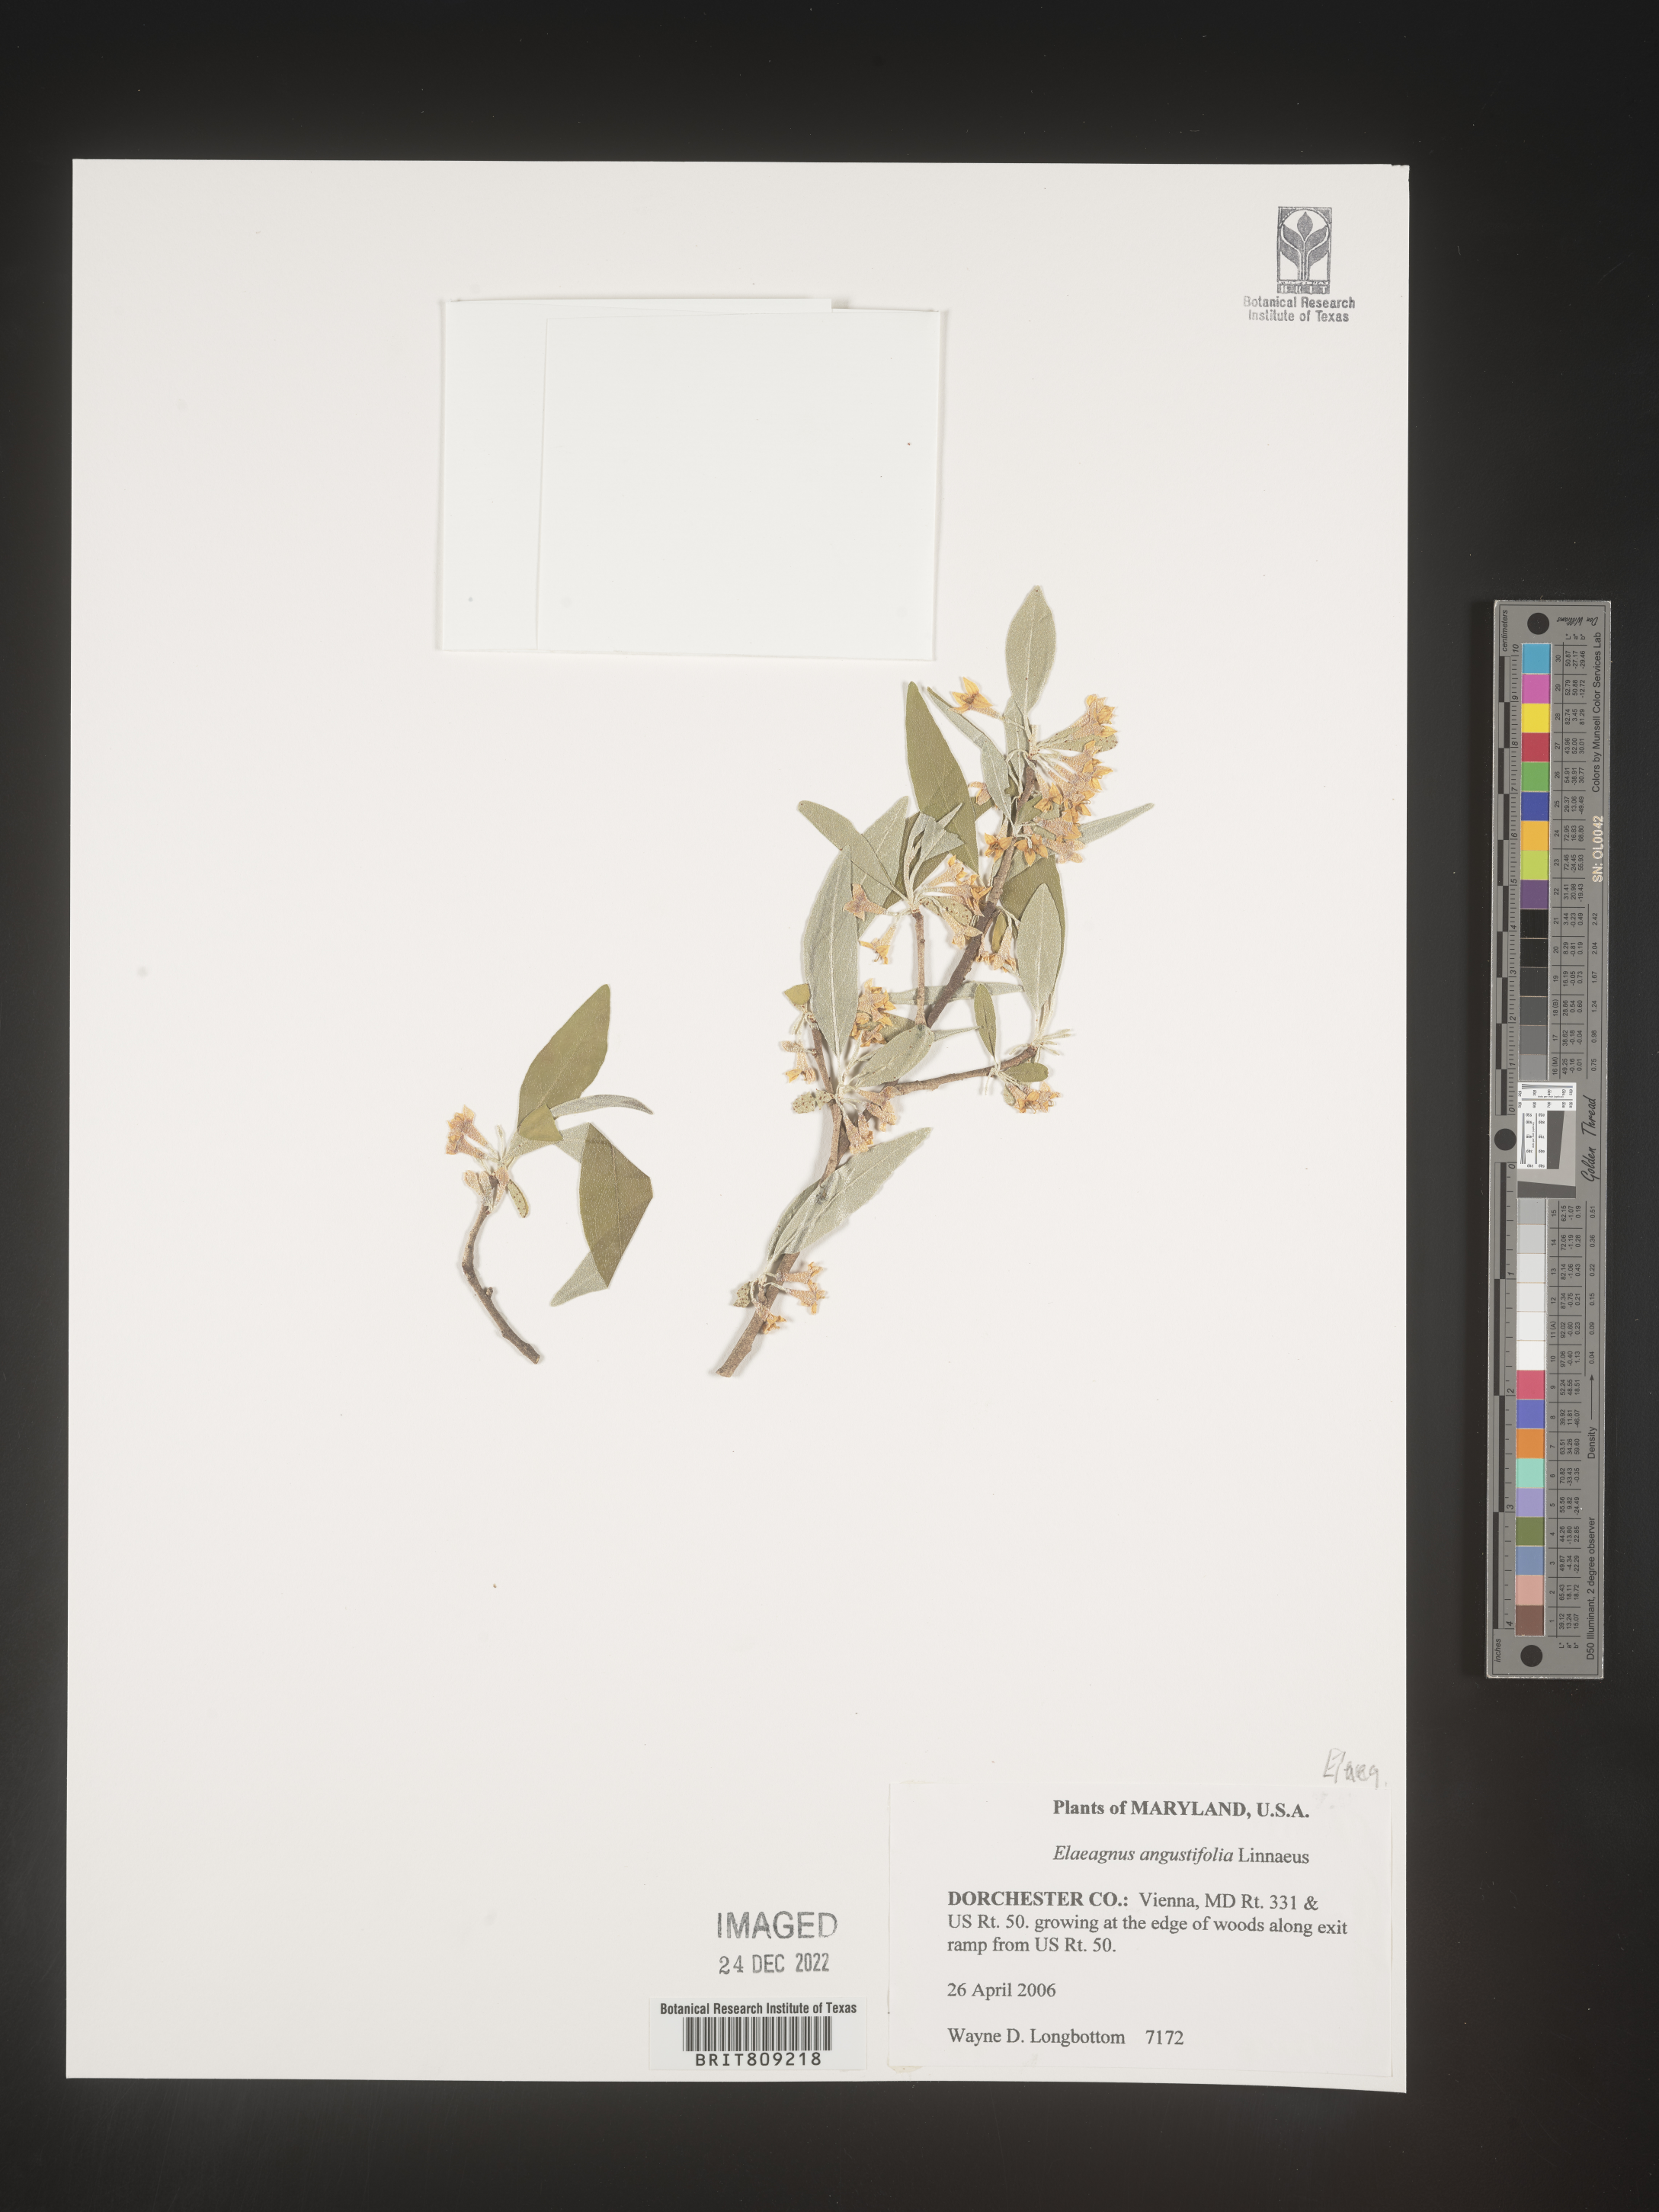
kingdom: Plantae
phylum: Tracheophyta
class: Magnoliopsida
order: Rosales
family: Elaeagnaceae
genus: Elaeagnus
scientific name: Elaeagnus angustifolia
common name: Russian olive
